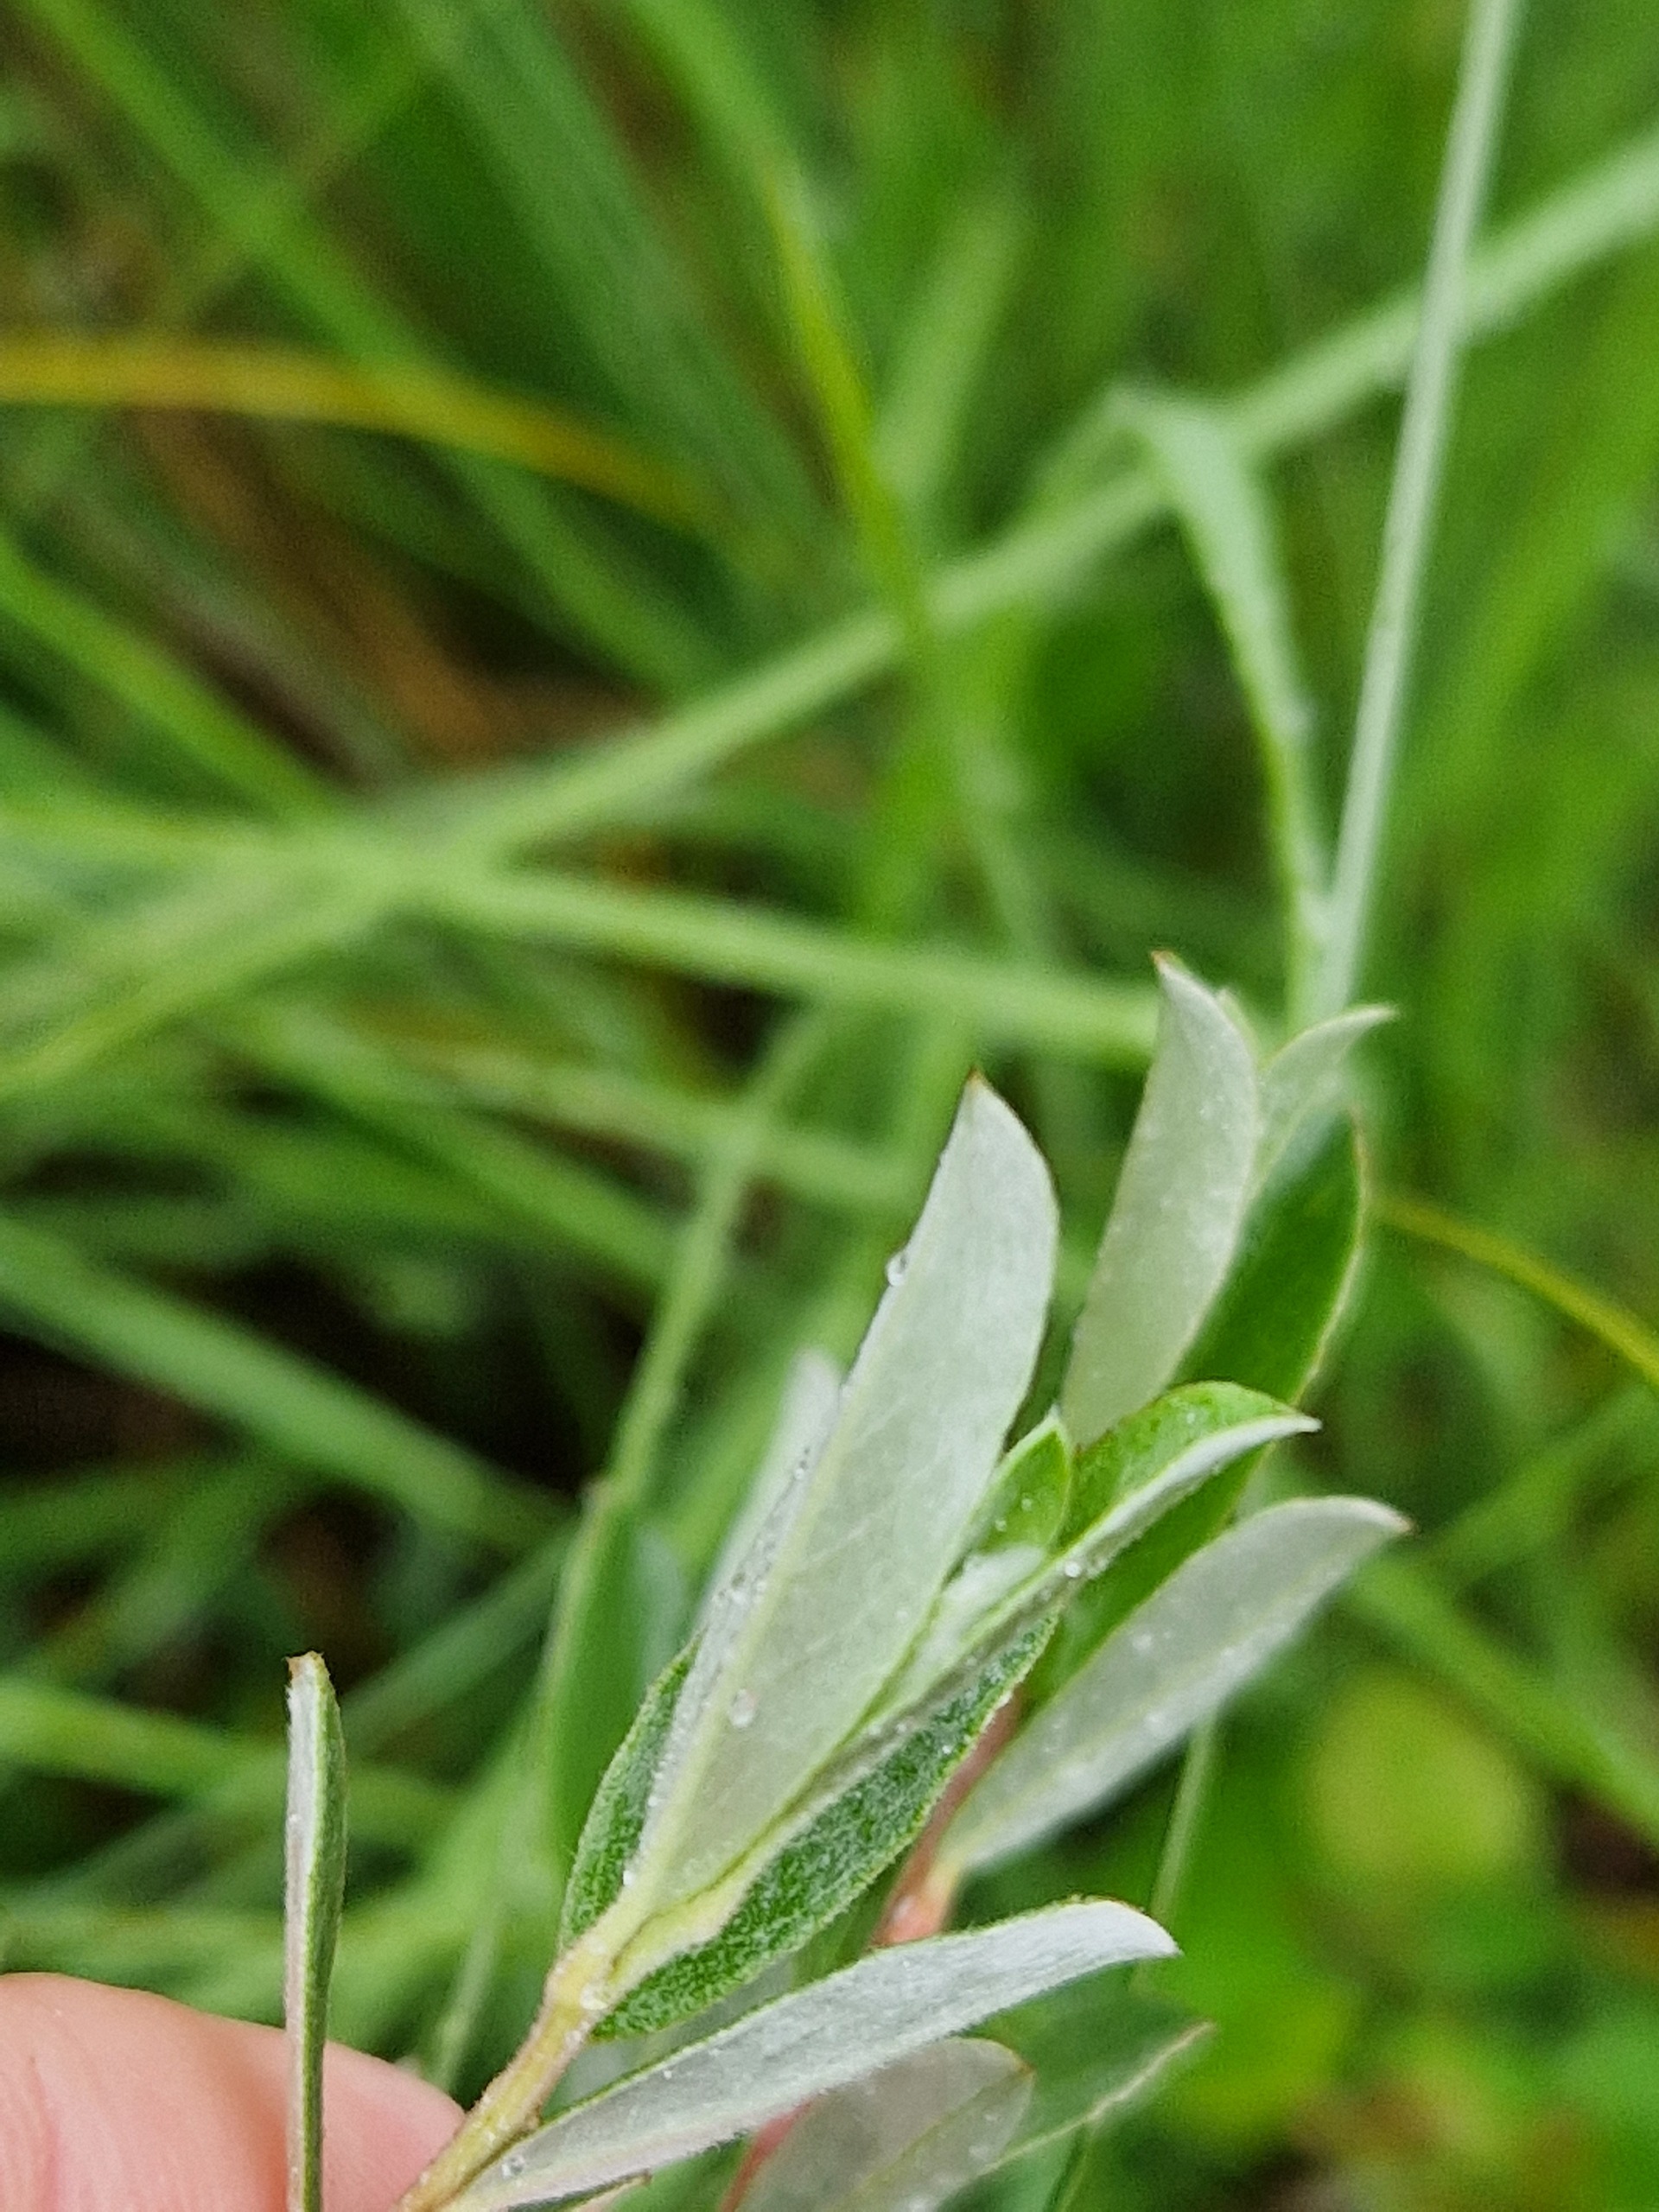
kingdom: Plantae
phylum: Tracheophyta
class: Magnoliopsida
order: Malpighiales
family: Salicaceae
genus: Salix
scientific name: Salix repens
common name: Krybende pil
